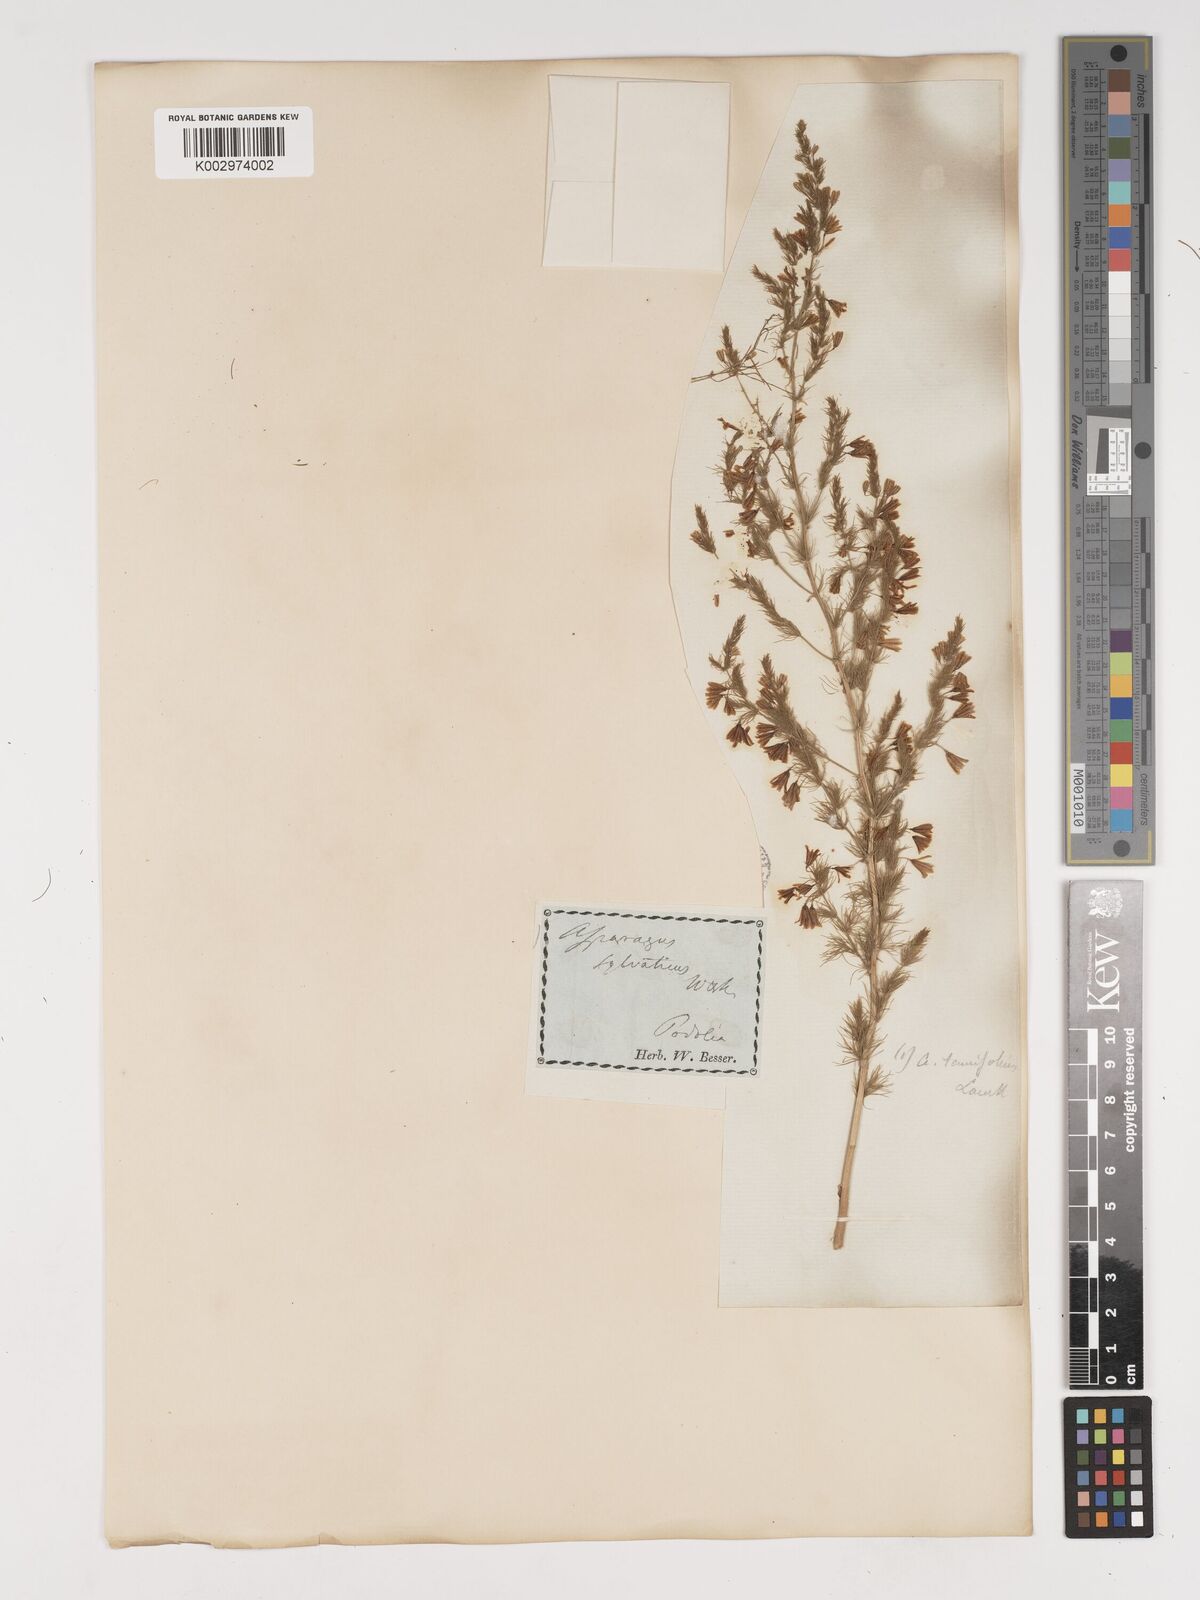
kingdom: Plantae
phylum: Tracheophyta
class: Liliopsida
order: Asparagales
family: Asparagaceae
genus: Asparagus
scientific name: Asparagus officinalis
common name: Garden asparagus
